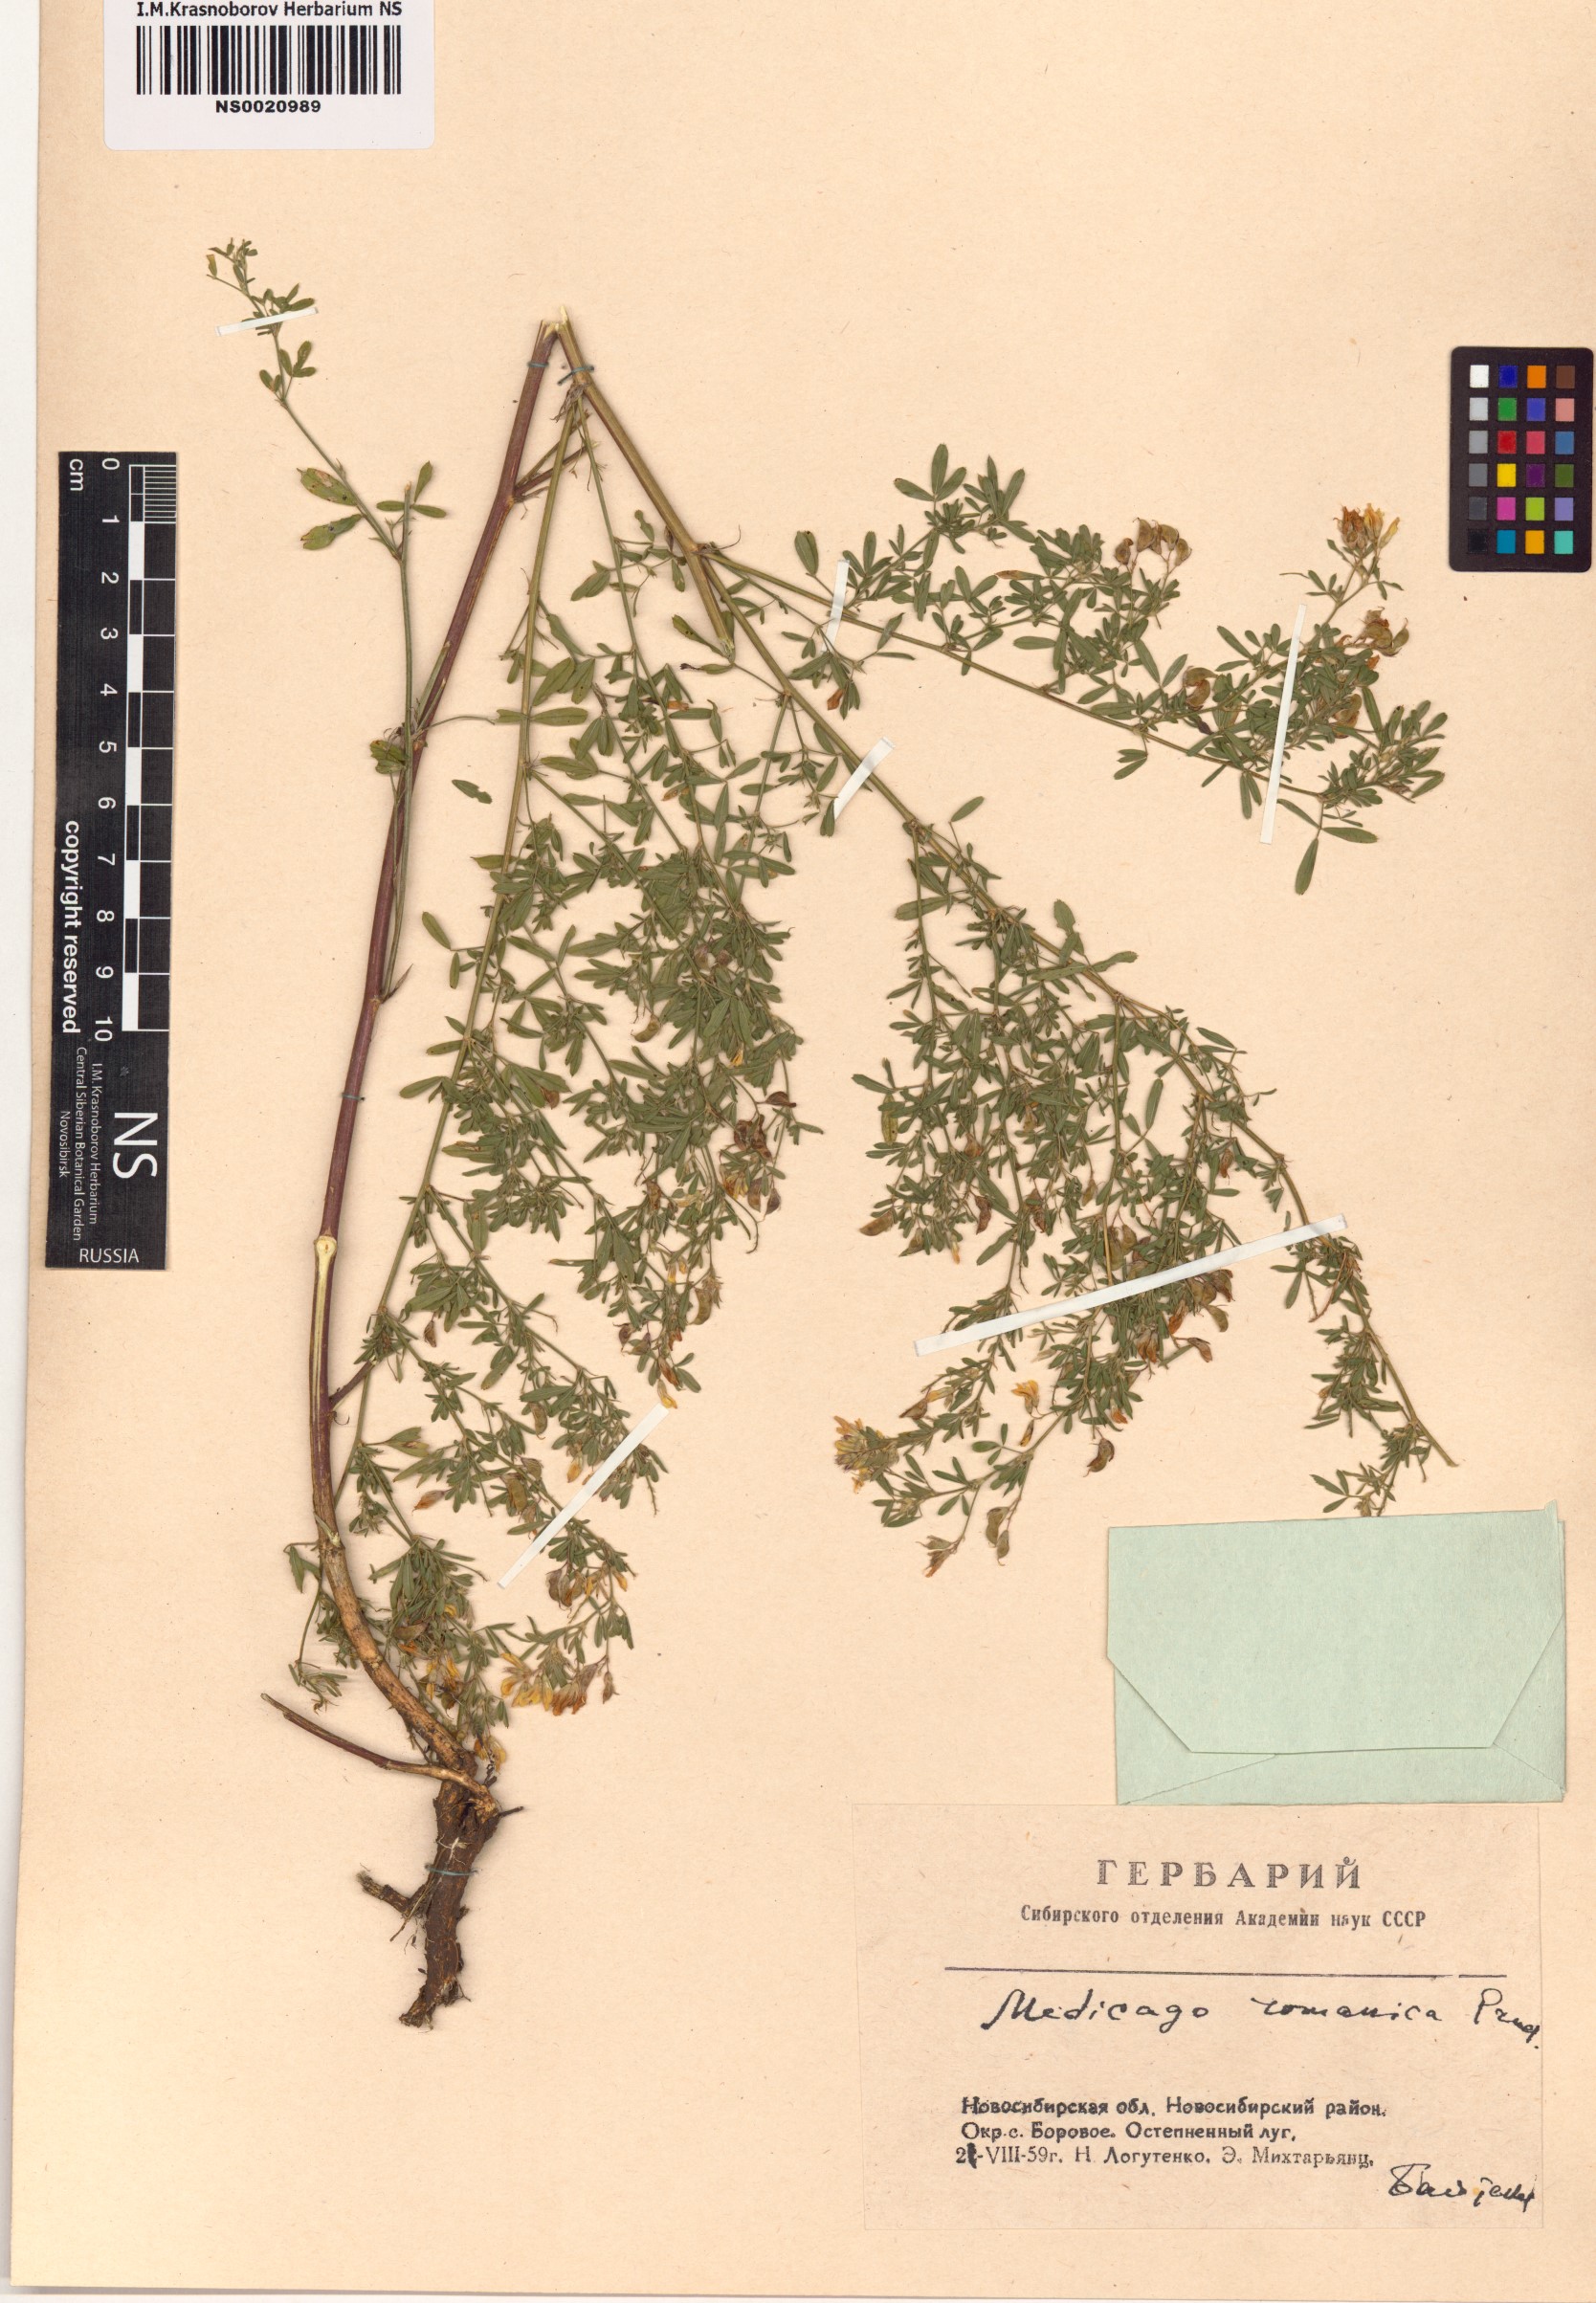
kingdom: Plantae
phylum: Tracheophyta
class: Magnoliopsida
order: Fabales
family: Fabaceae
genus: Medicago
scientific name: Medicago falcata
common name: Sickle medick
